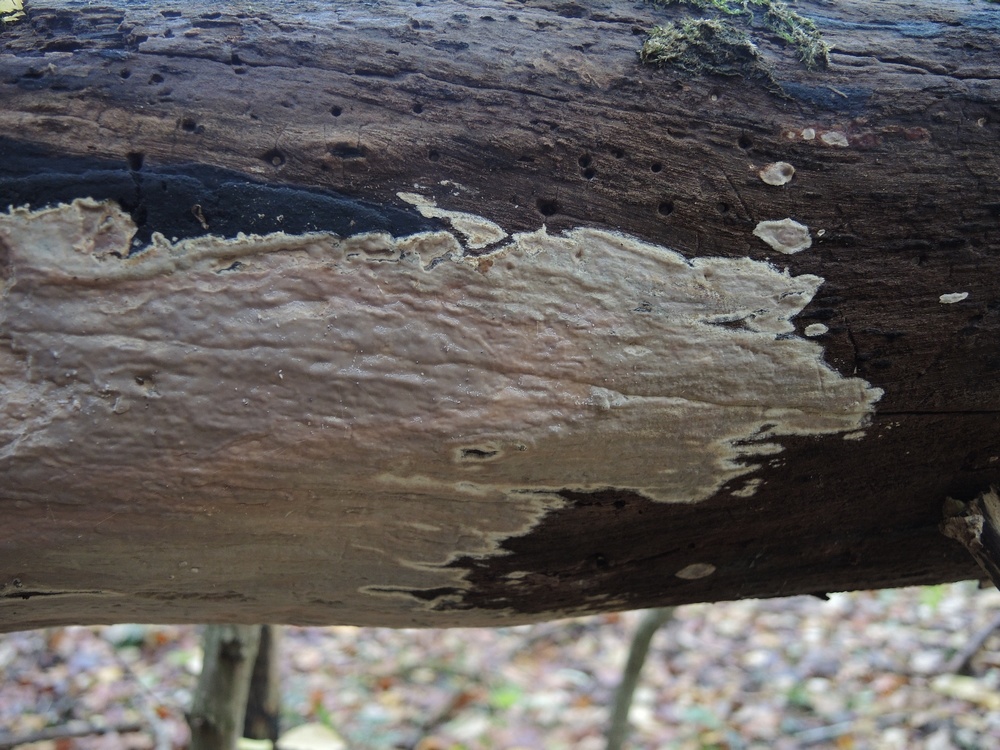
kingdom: Fungi
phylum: Basidiomycota
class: Agaricomycetes
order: Russulales
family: Peniophoraceae
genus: Scytinostroma
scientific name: Scytinostroma hemidichophyticum
